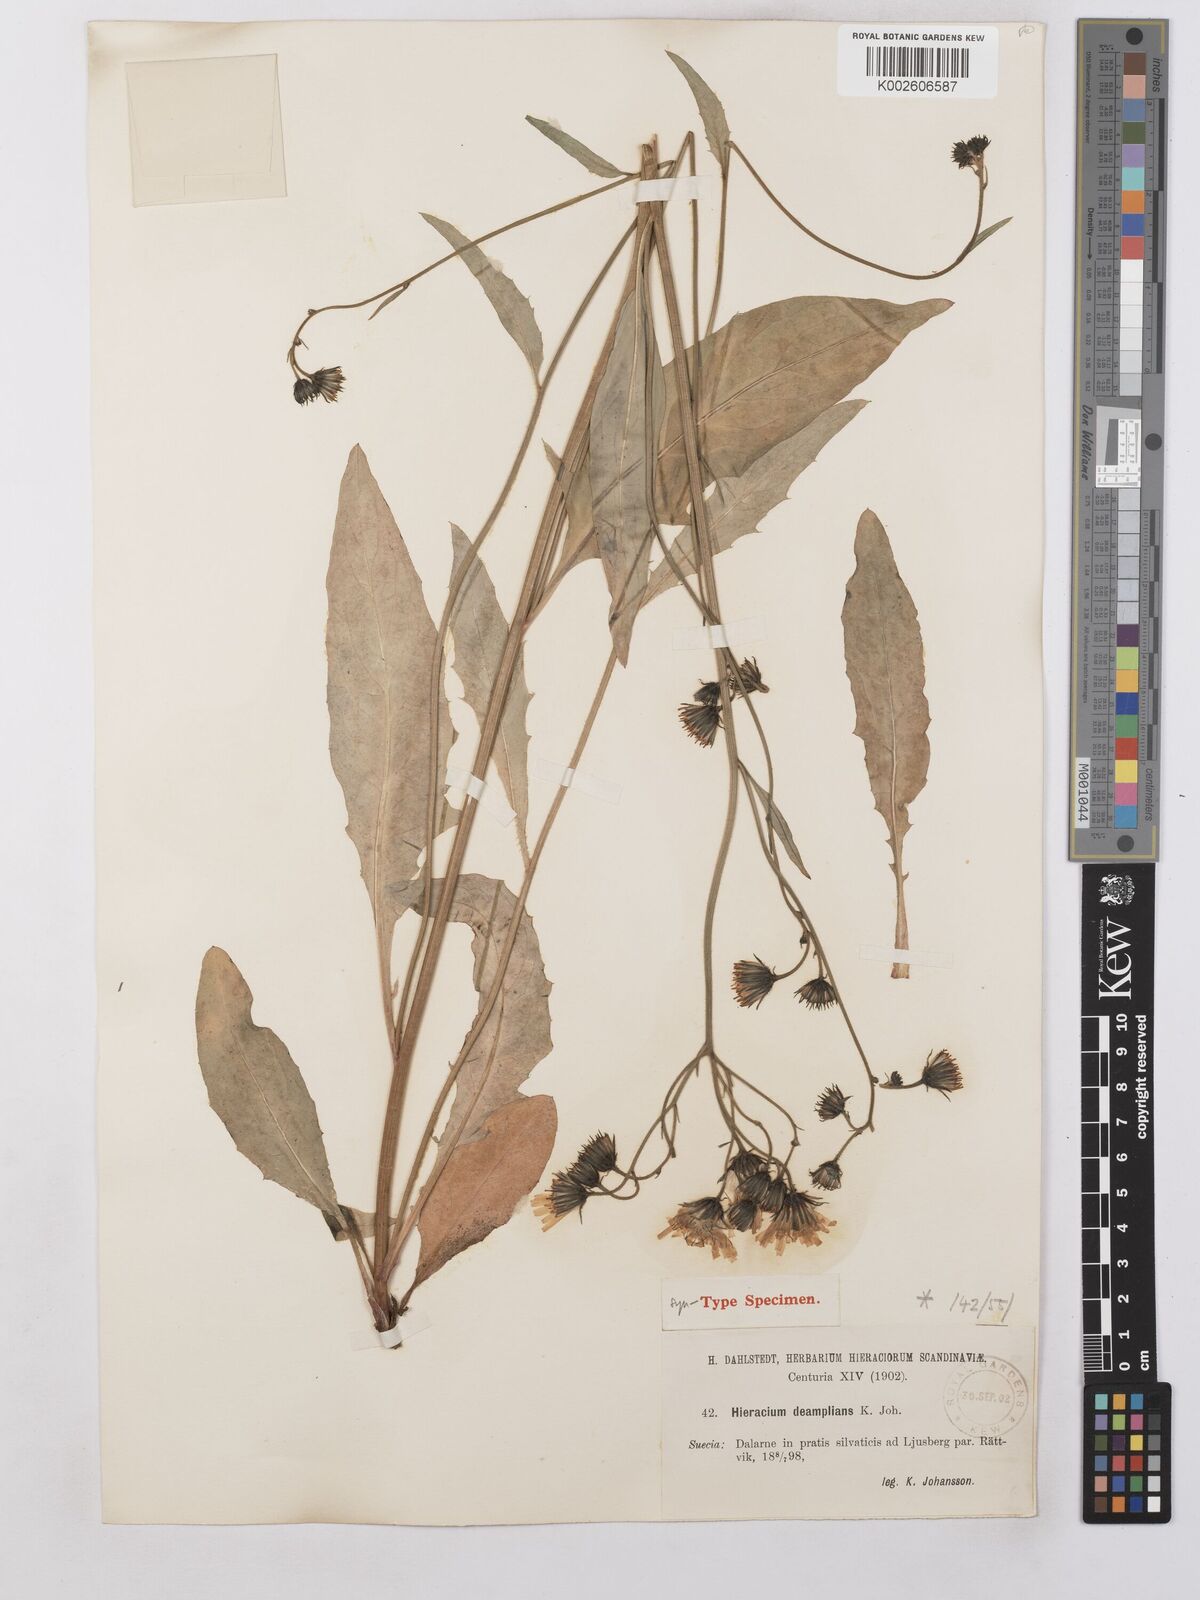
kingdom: Plantae
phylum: Tracheophyta
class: Magnoliopsida
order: Asterales
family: Asteraceae
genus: Hieracium
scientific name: Hieracium lachenalii
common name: Common hawkweed
